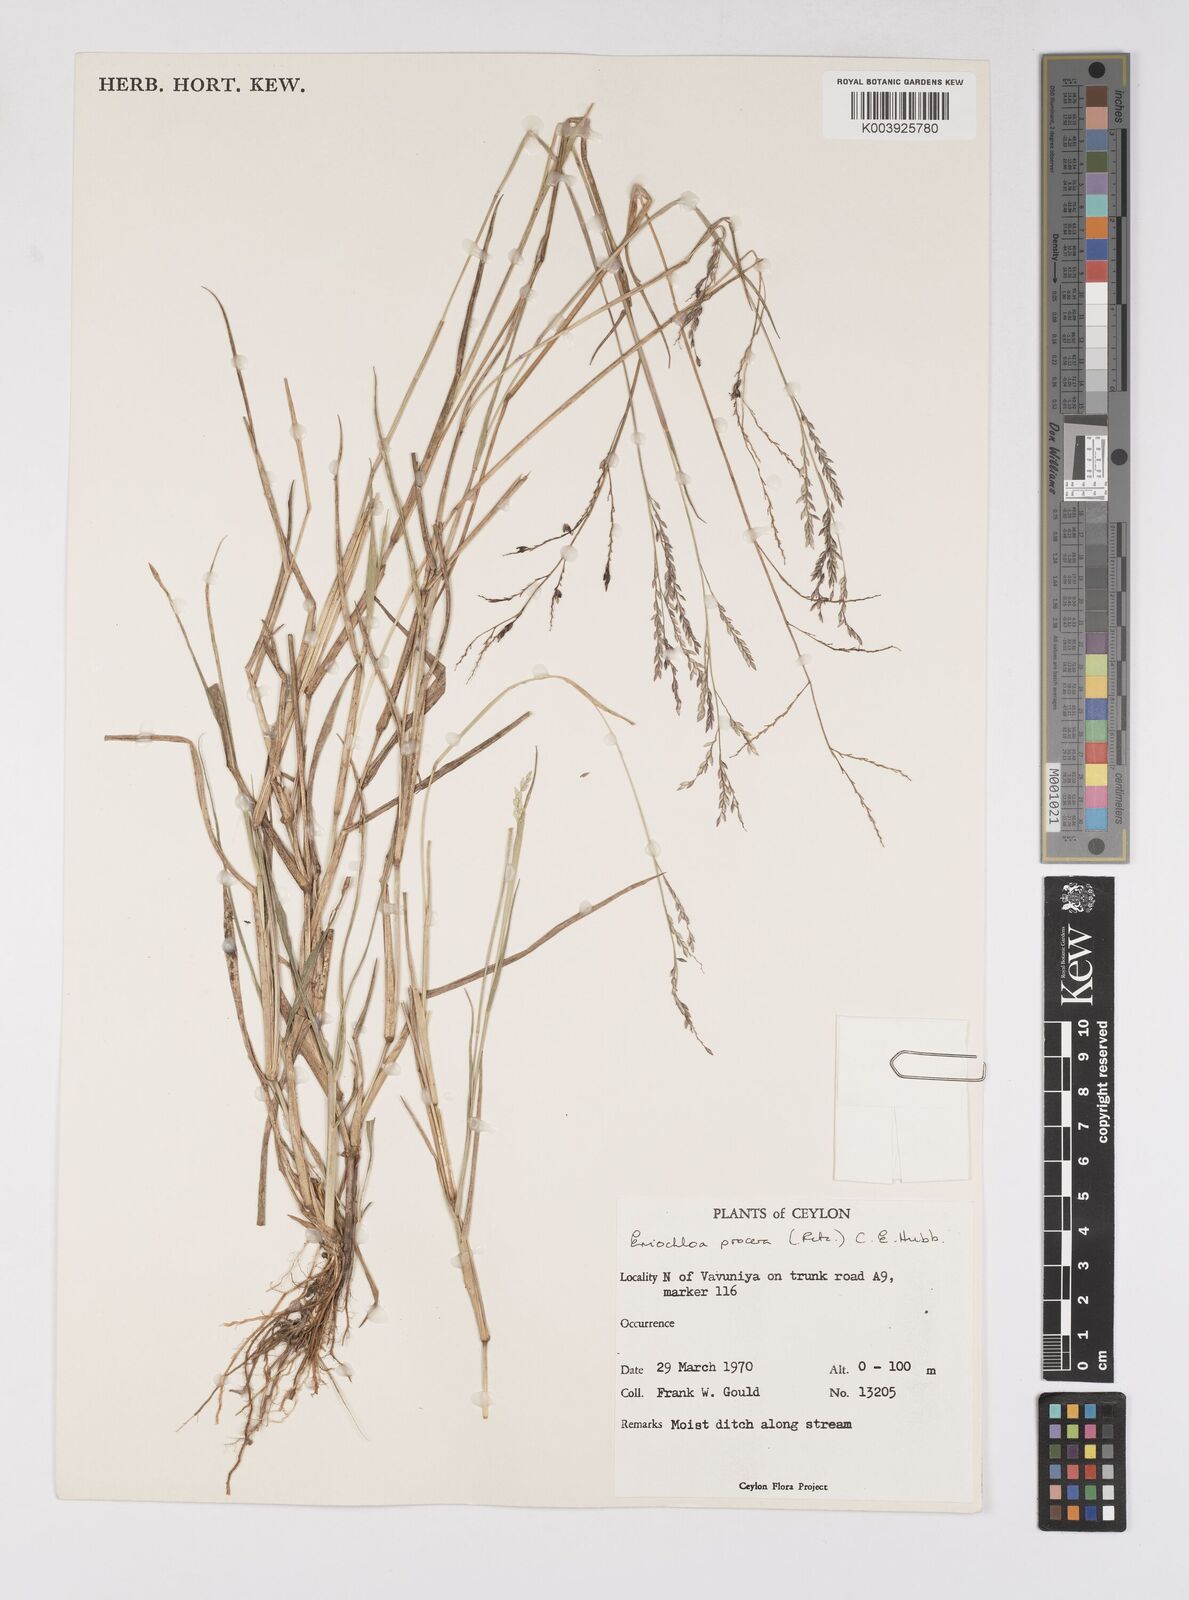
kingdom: Plantae
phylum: Tracheophyta
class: Liliopsida
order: Poales
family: Poaceae
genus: Eriochloa
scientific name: Eriochloa procera
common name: Spring grass
